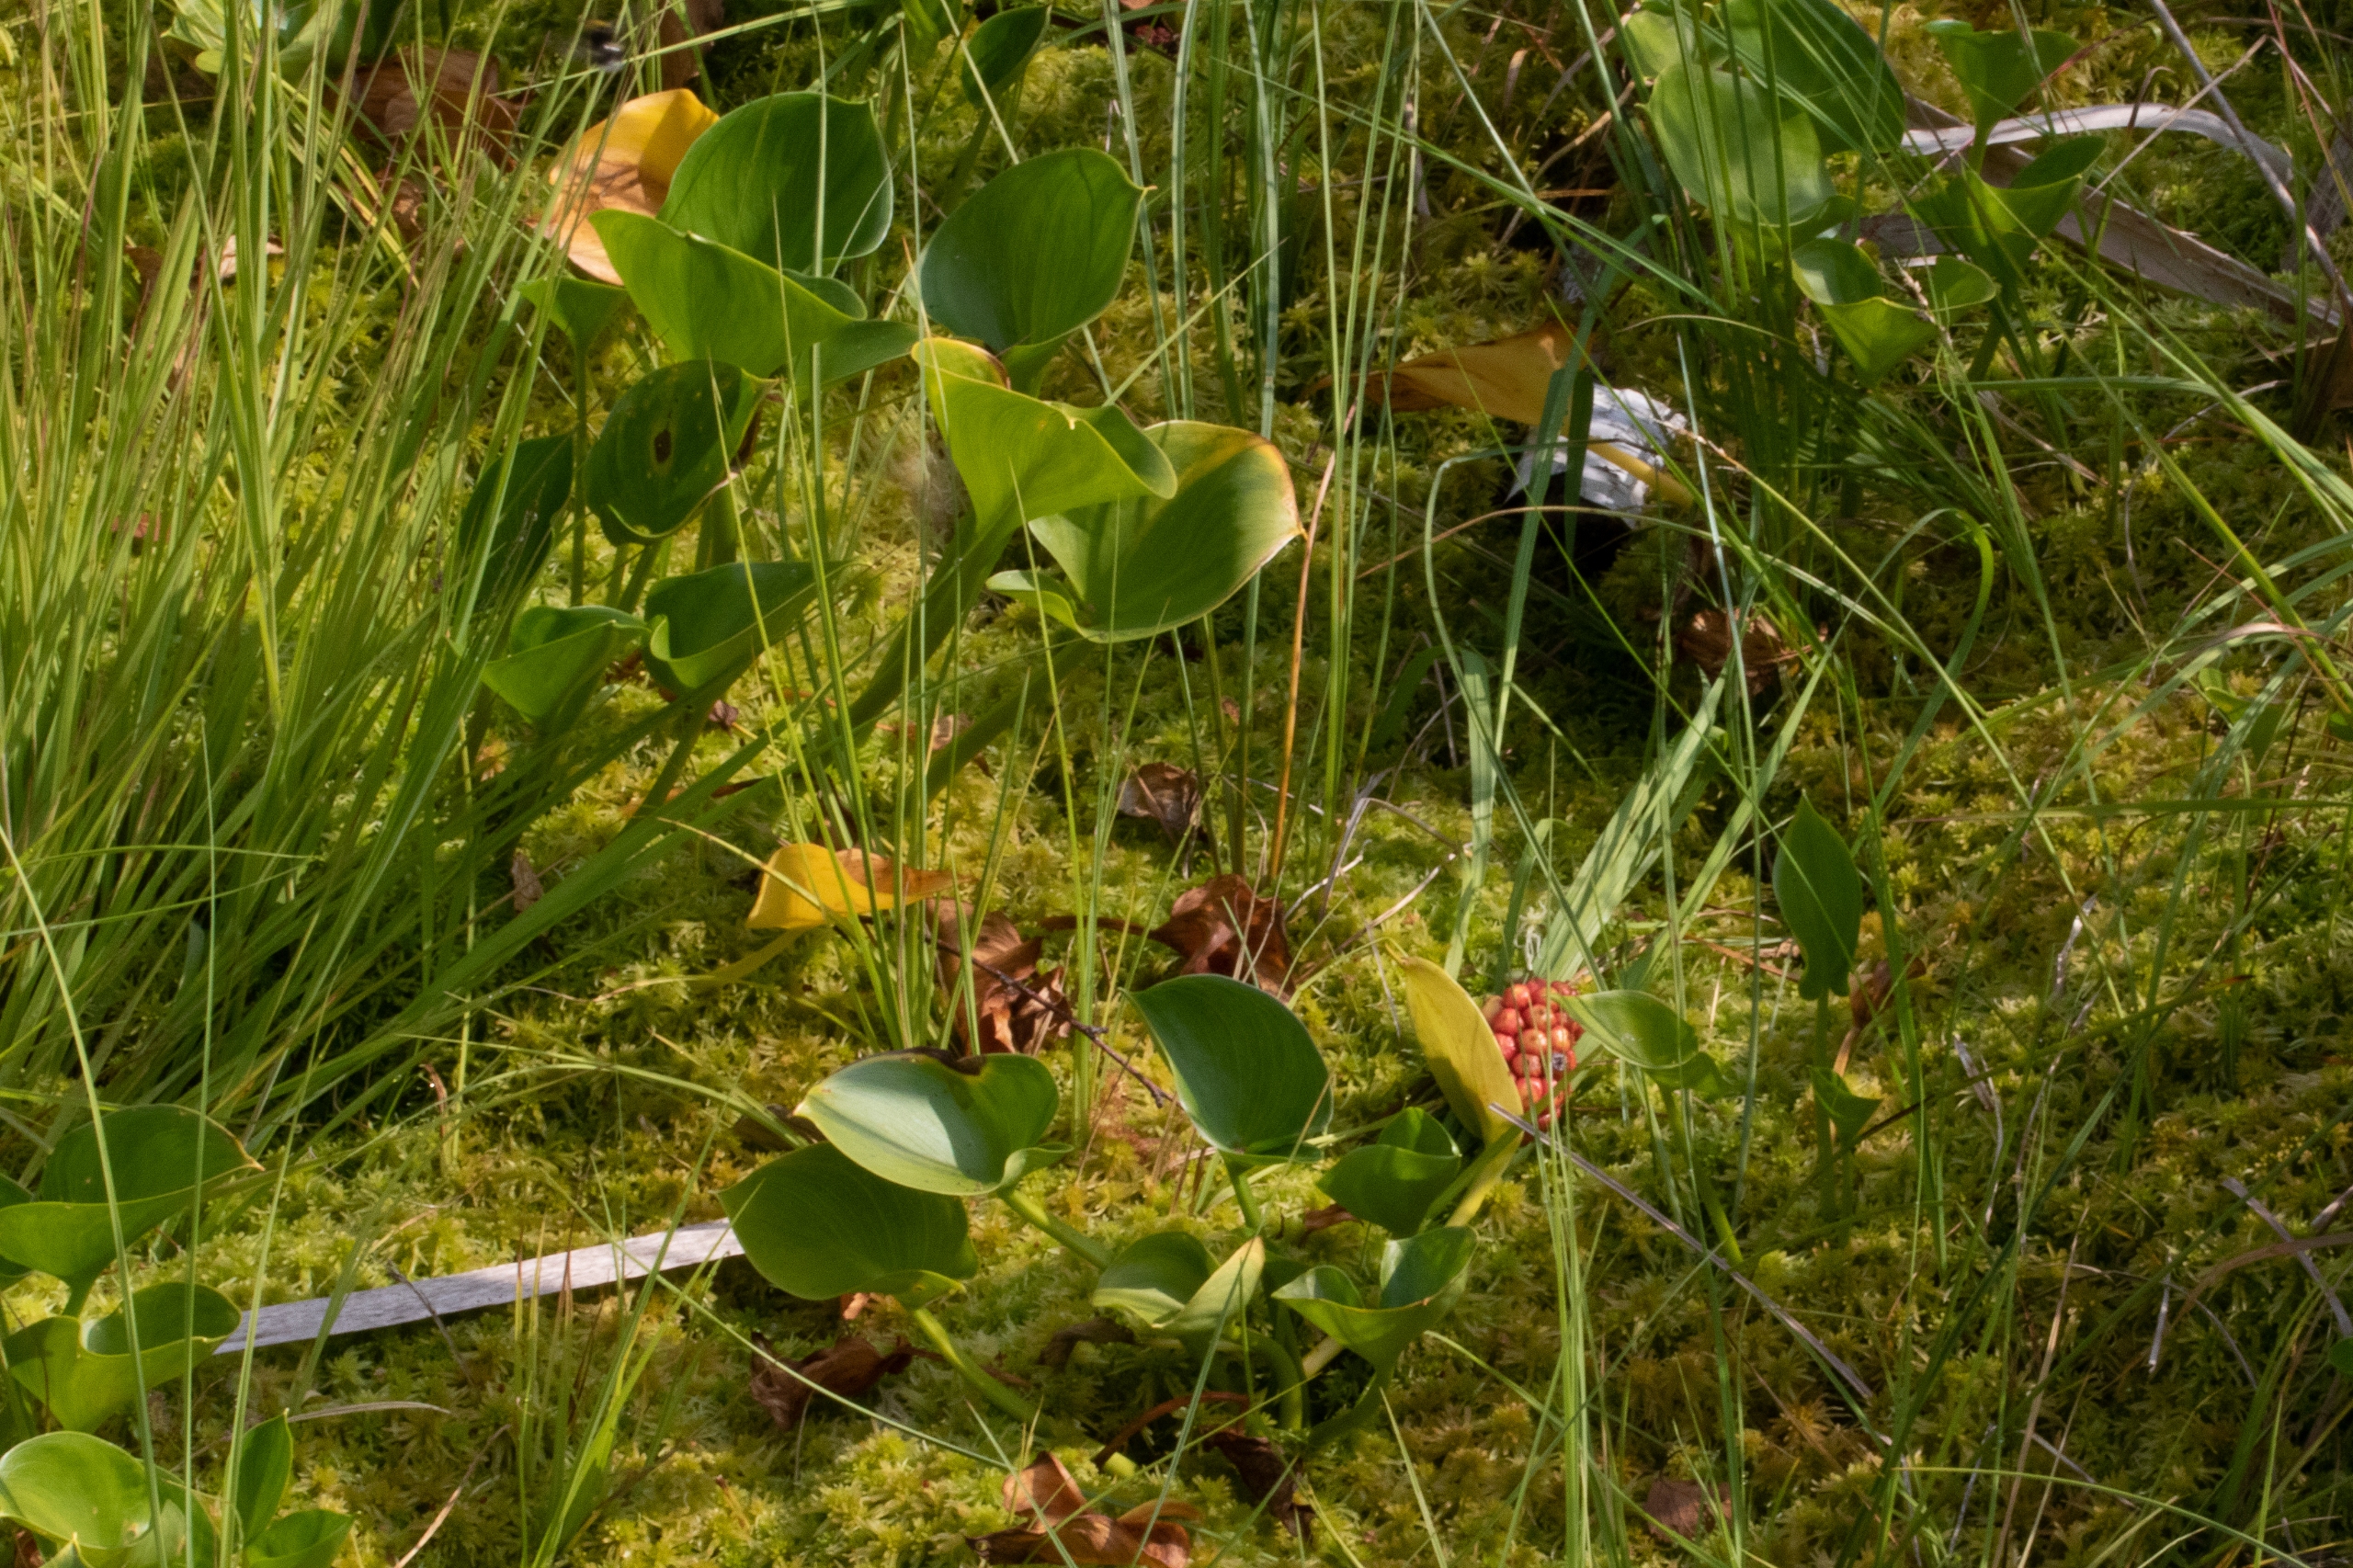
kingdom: Plantae
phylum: Tracheophyta
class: Liliopsida
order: Alismatales
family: Araceae
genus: Calla
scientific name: Calla palustris
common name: Kærmysse
